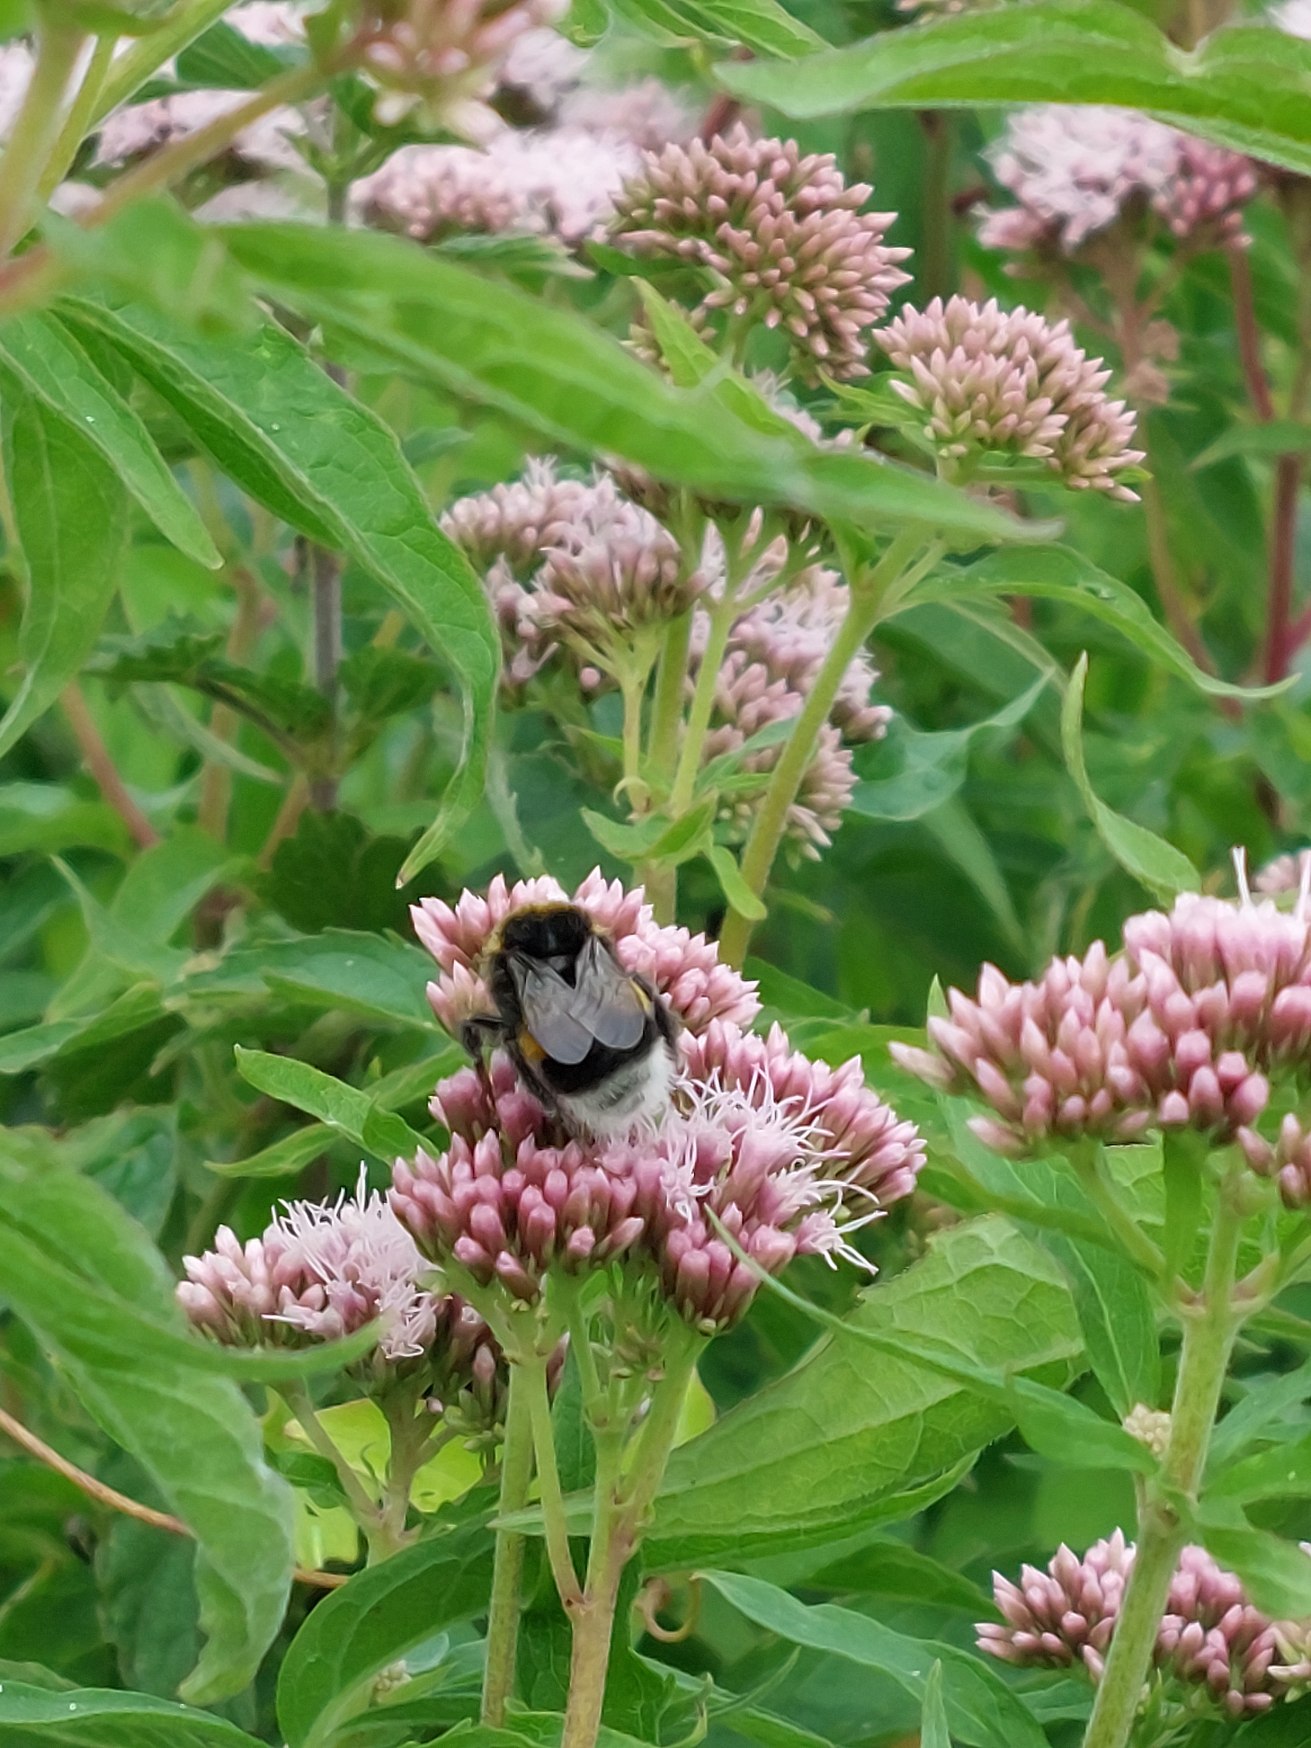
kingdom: Plantae
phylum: Tracheophyta
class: Magnoliopsida
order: Asterales
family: Asteraceae
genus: Eupatorium
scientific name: Eupatorium cannabinum
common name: Hjortetrøst
